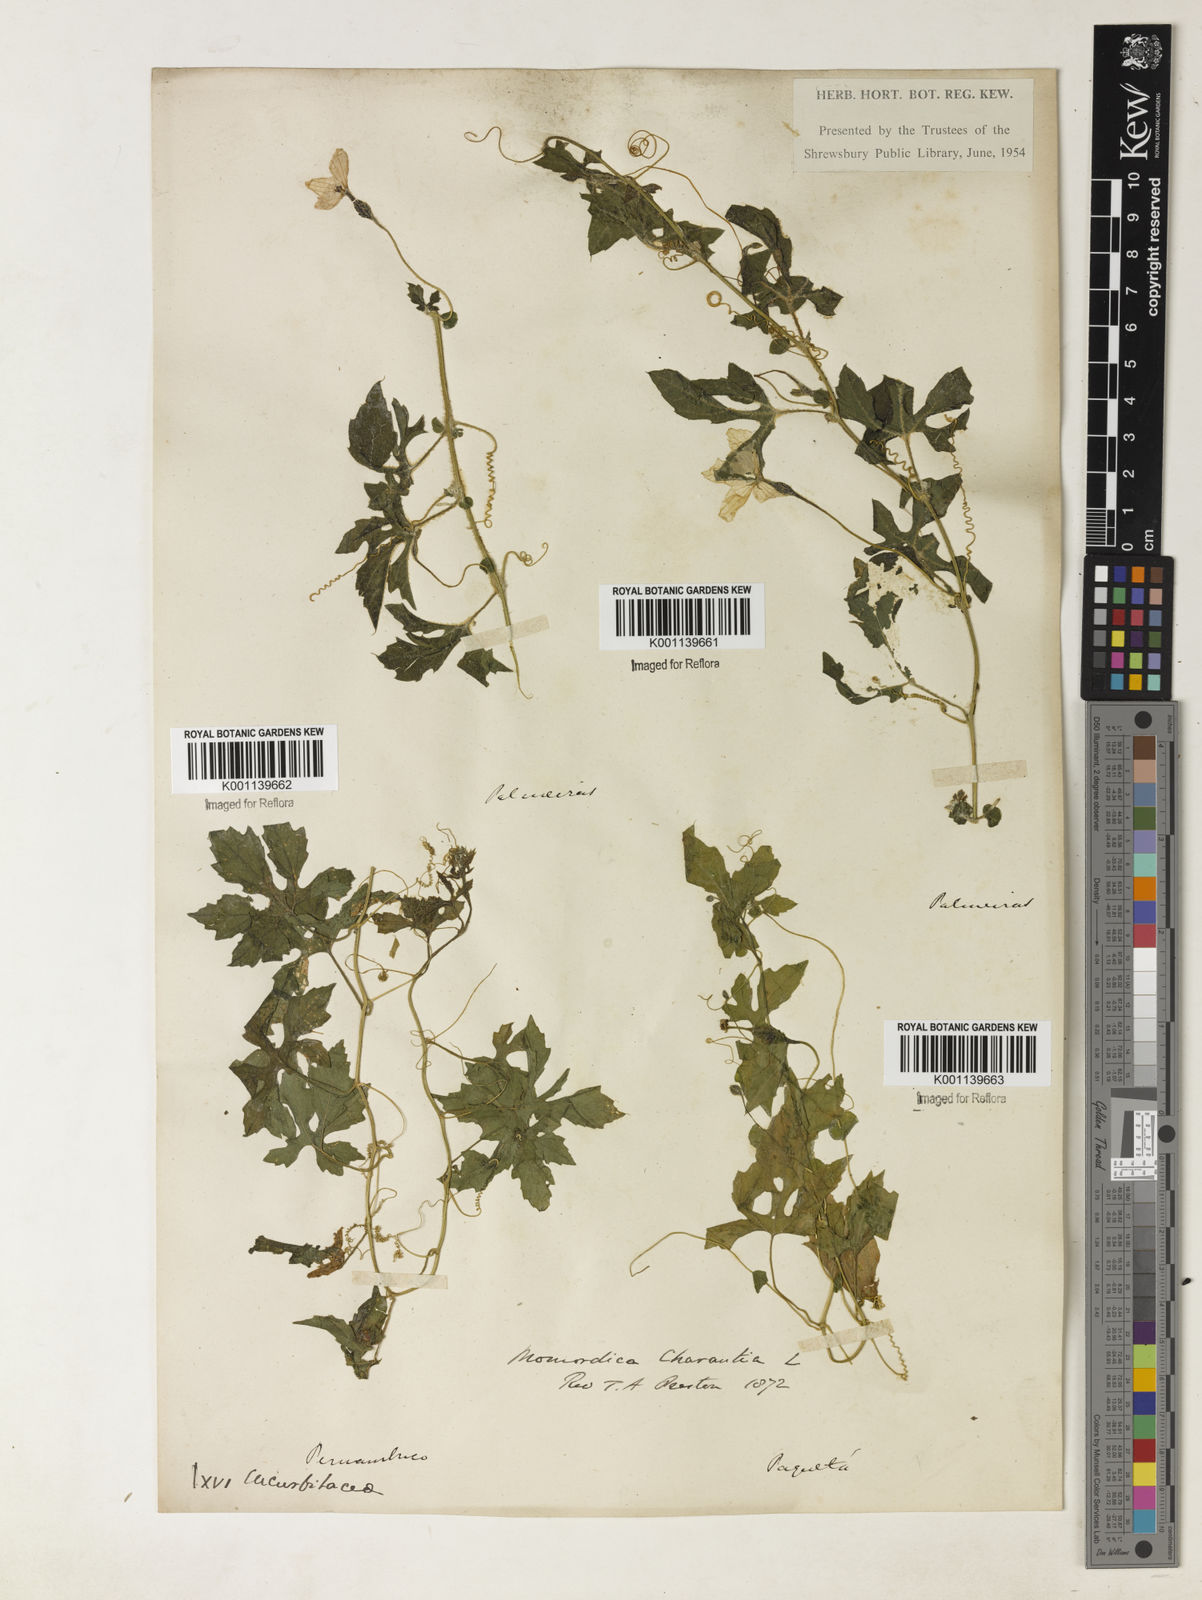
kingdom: Plantae
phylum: Tracheophyta
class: Magnoliopsida
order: Cucurbitales
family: Cucurbitaceae
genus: Momordica
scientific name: Momordica charantia
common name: Balsampear
